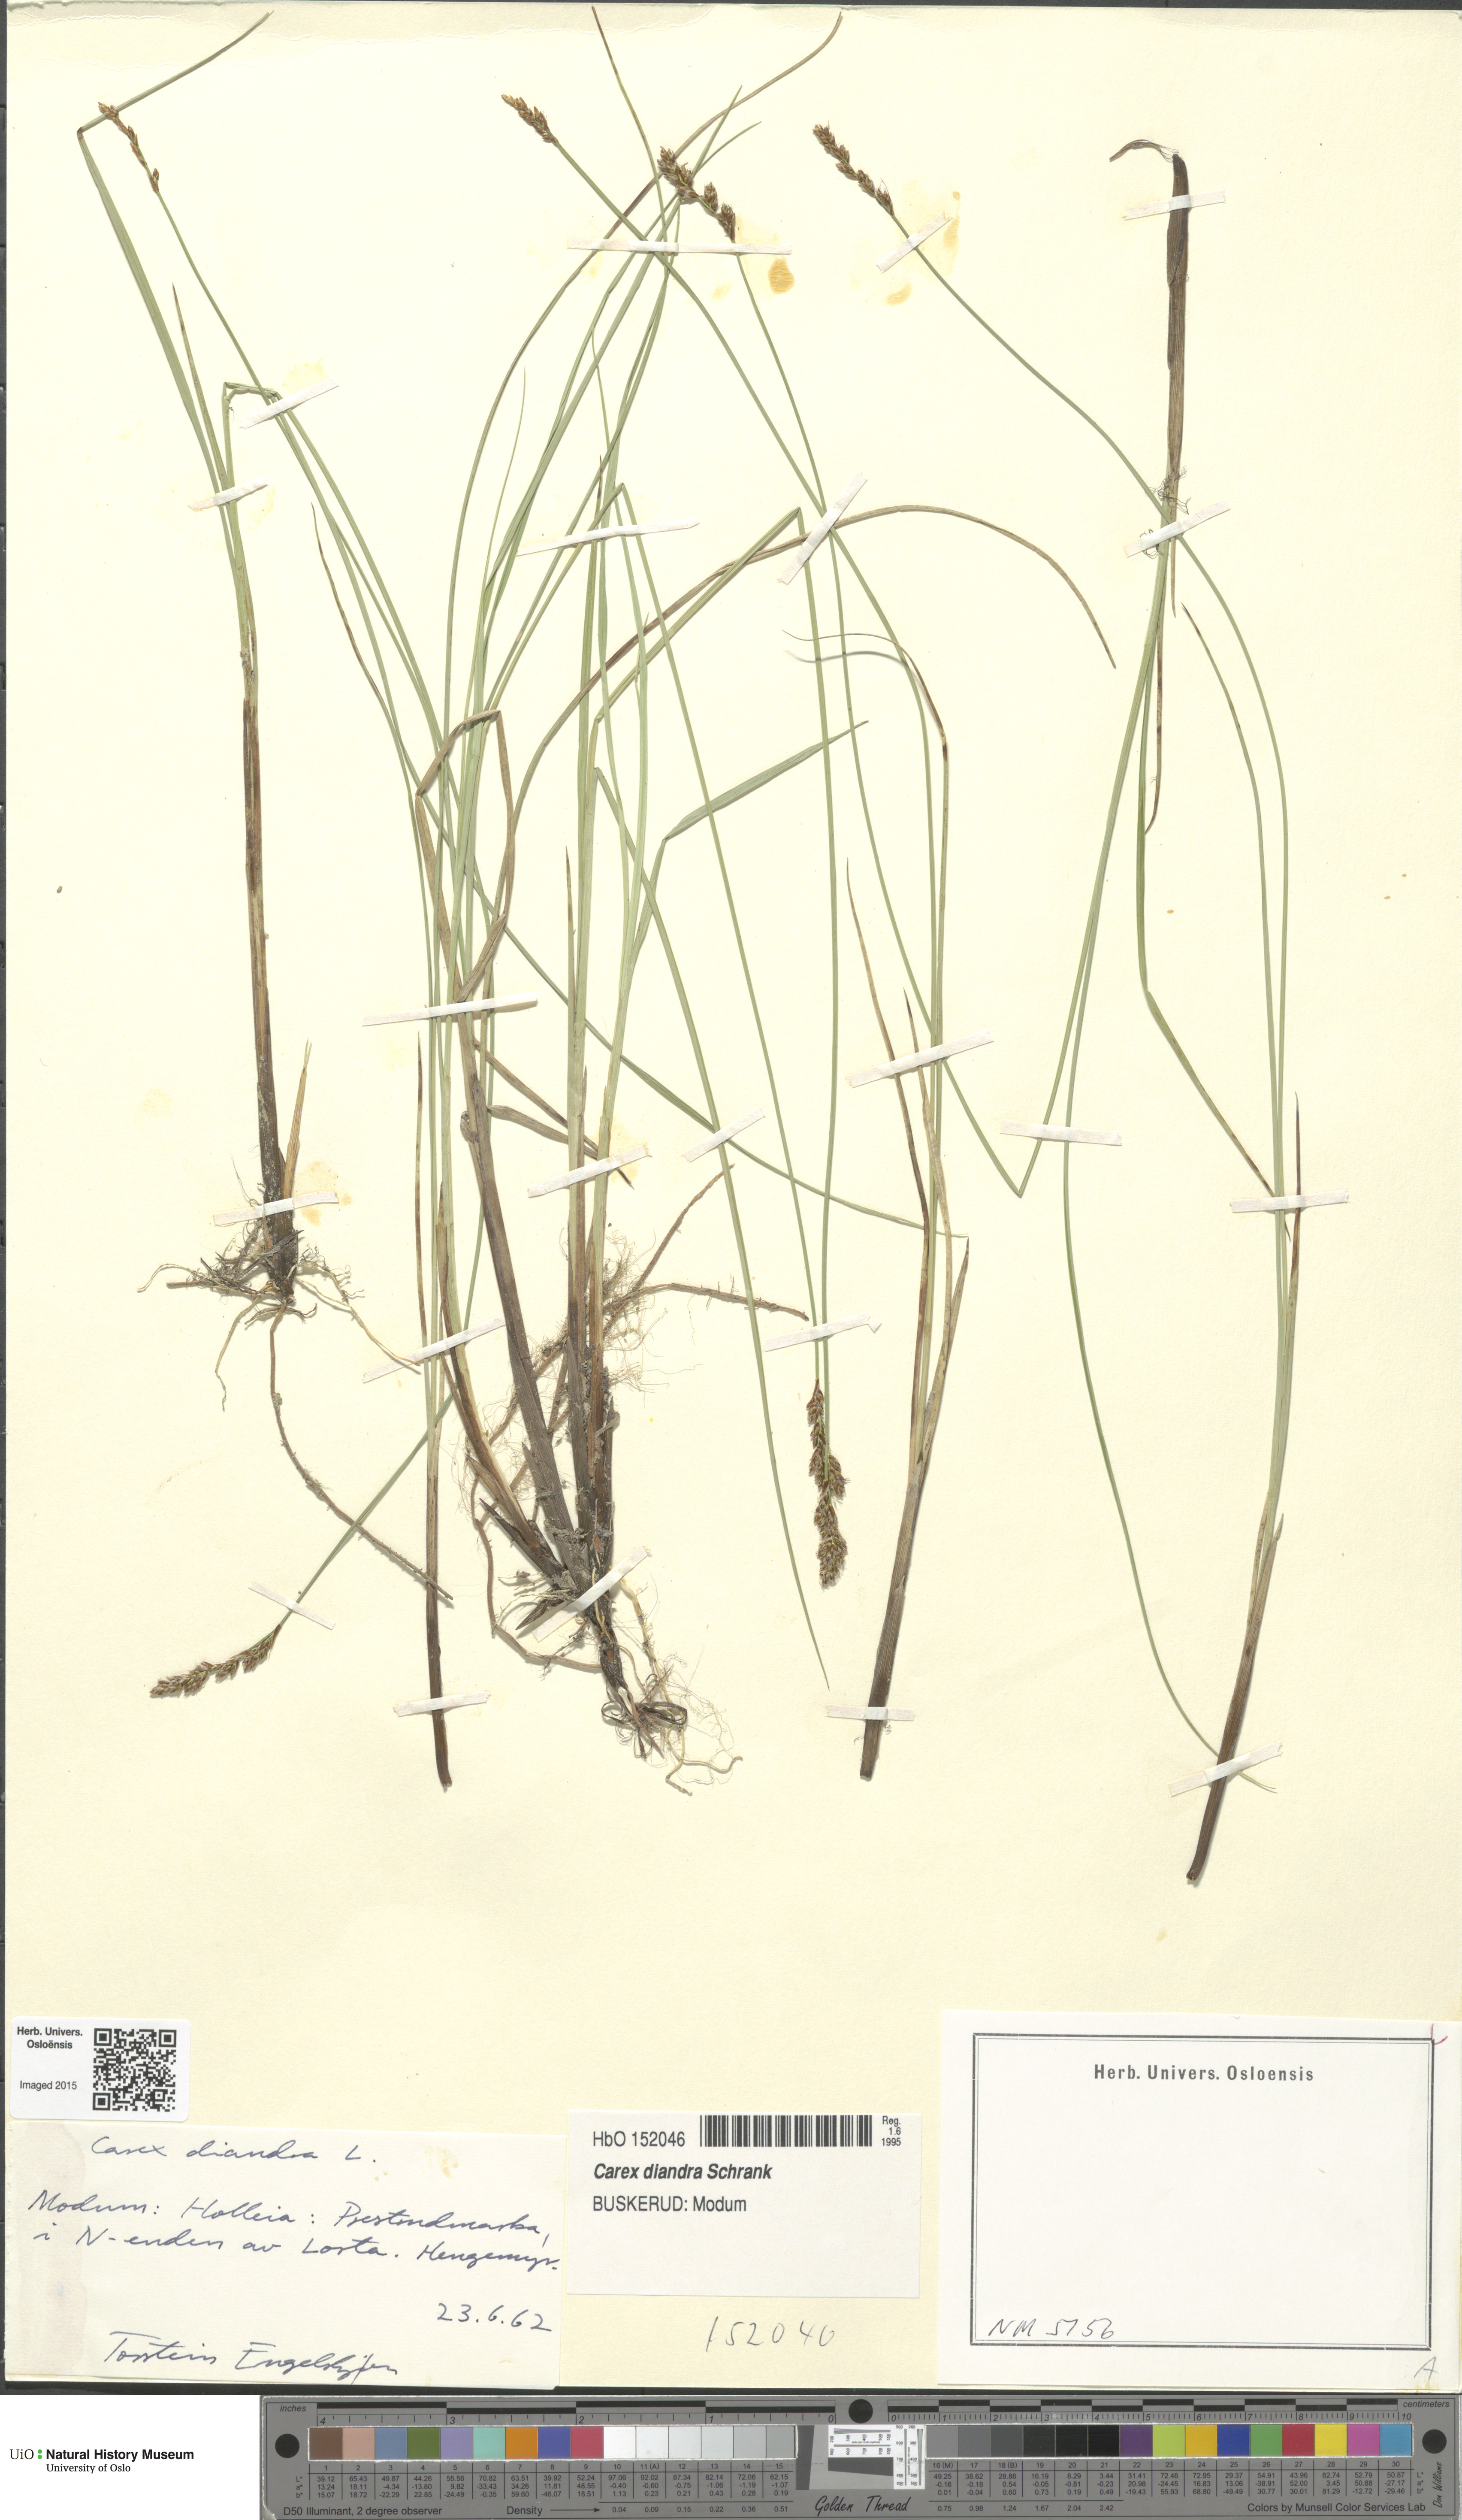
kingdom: Plantae
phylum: Tracheophyta
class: Liliopsida
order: Poales
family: Cyperaceae
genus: Carex
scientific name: Carex diandra
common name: Lesser tussock-sedge
